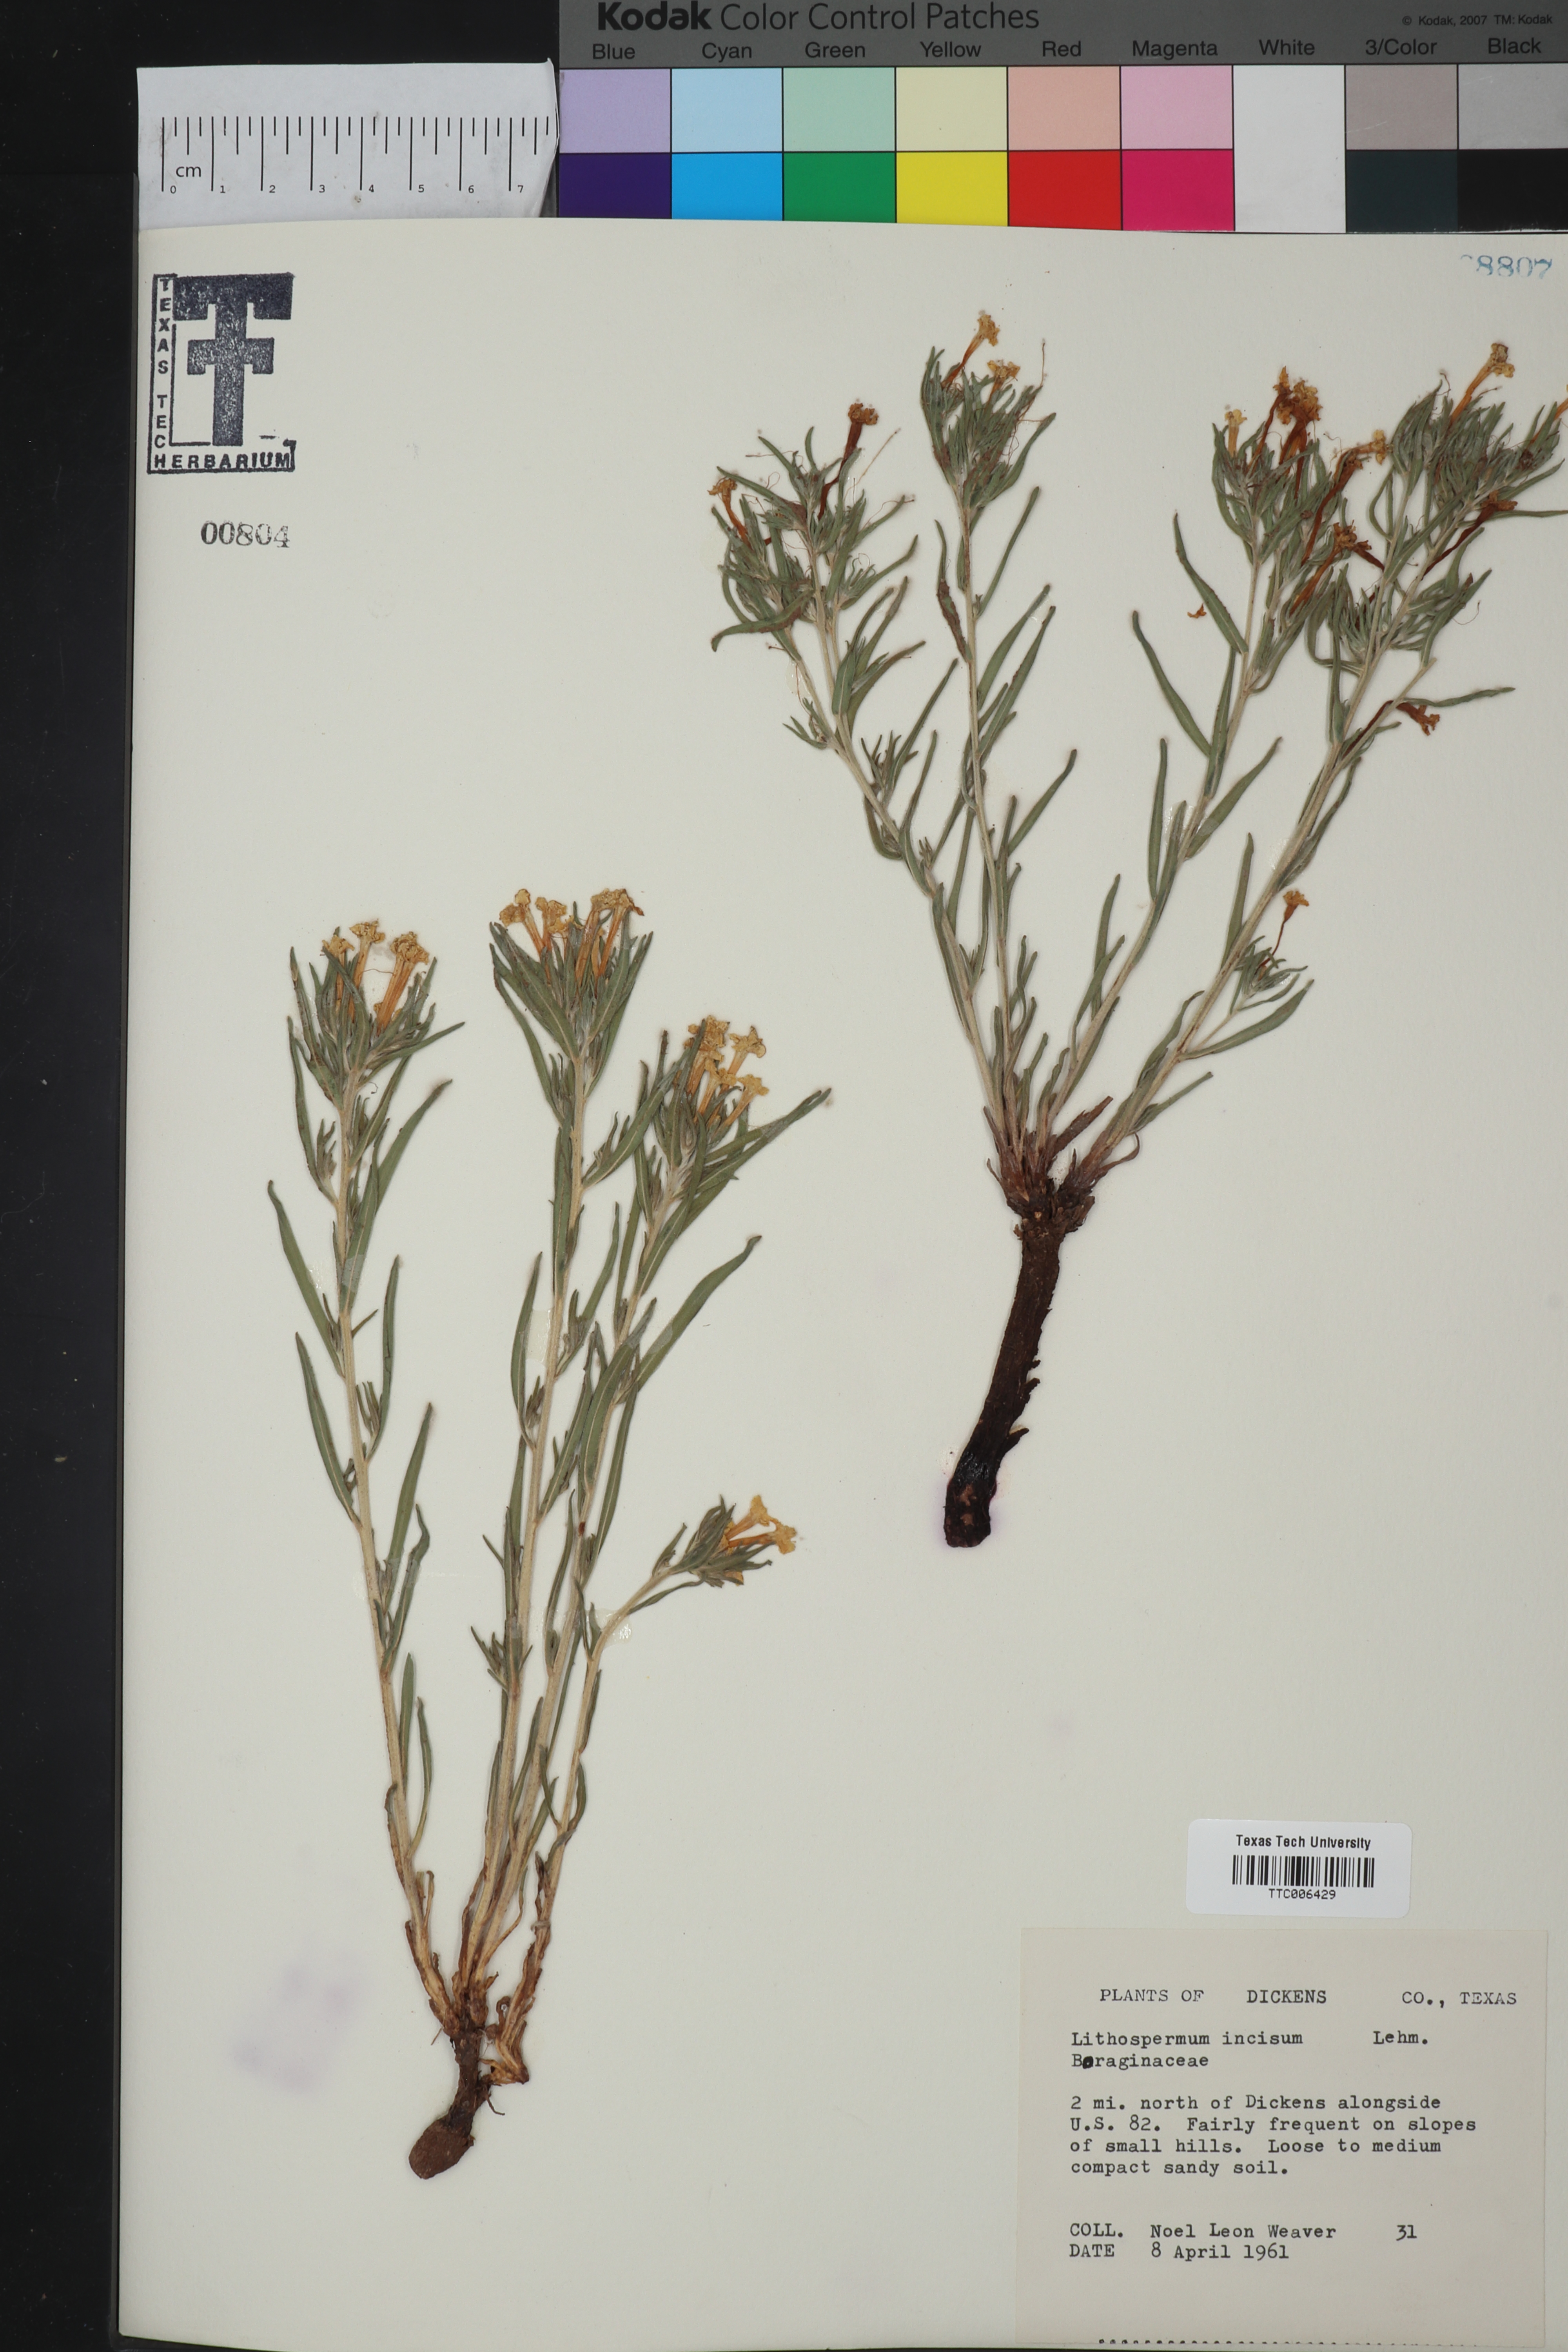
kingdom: Plantae
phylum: Tracheophyta
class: Magnoliopsida
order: Boraginales
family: Boraginaceae
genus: Lithospermum
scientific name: Lithospermum incisum
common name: Fringed gromwell
